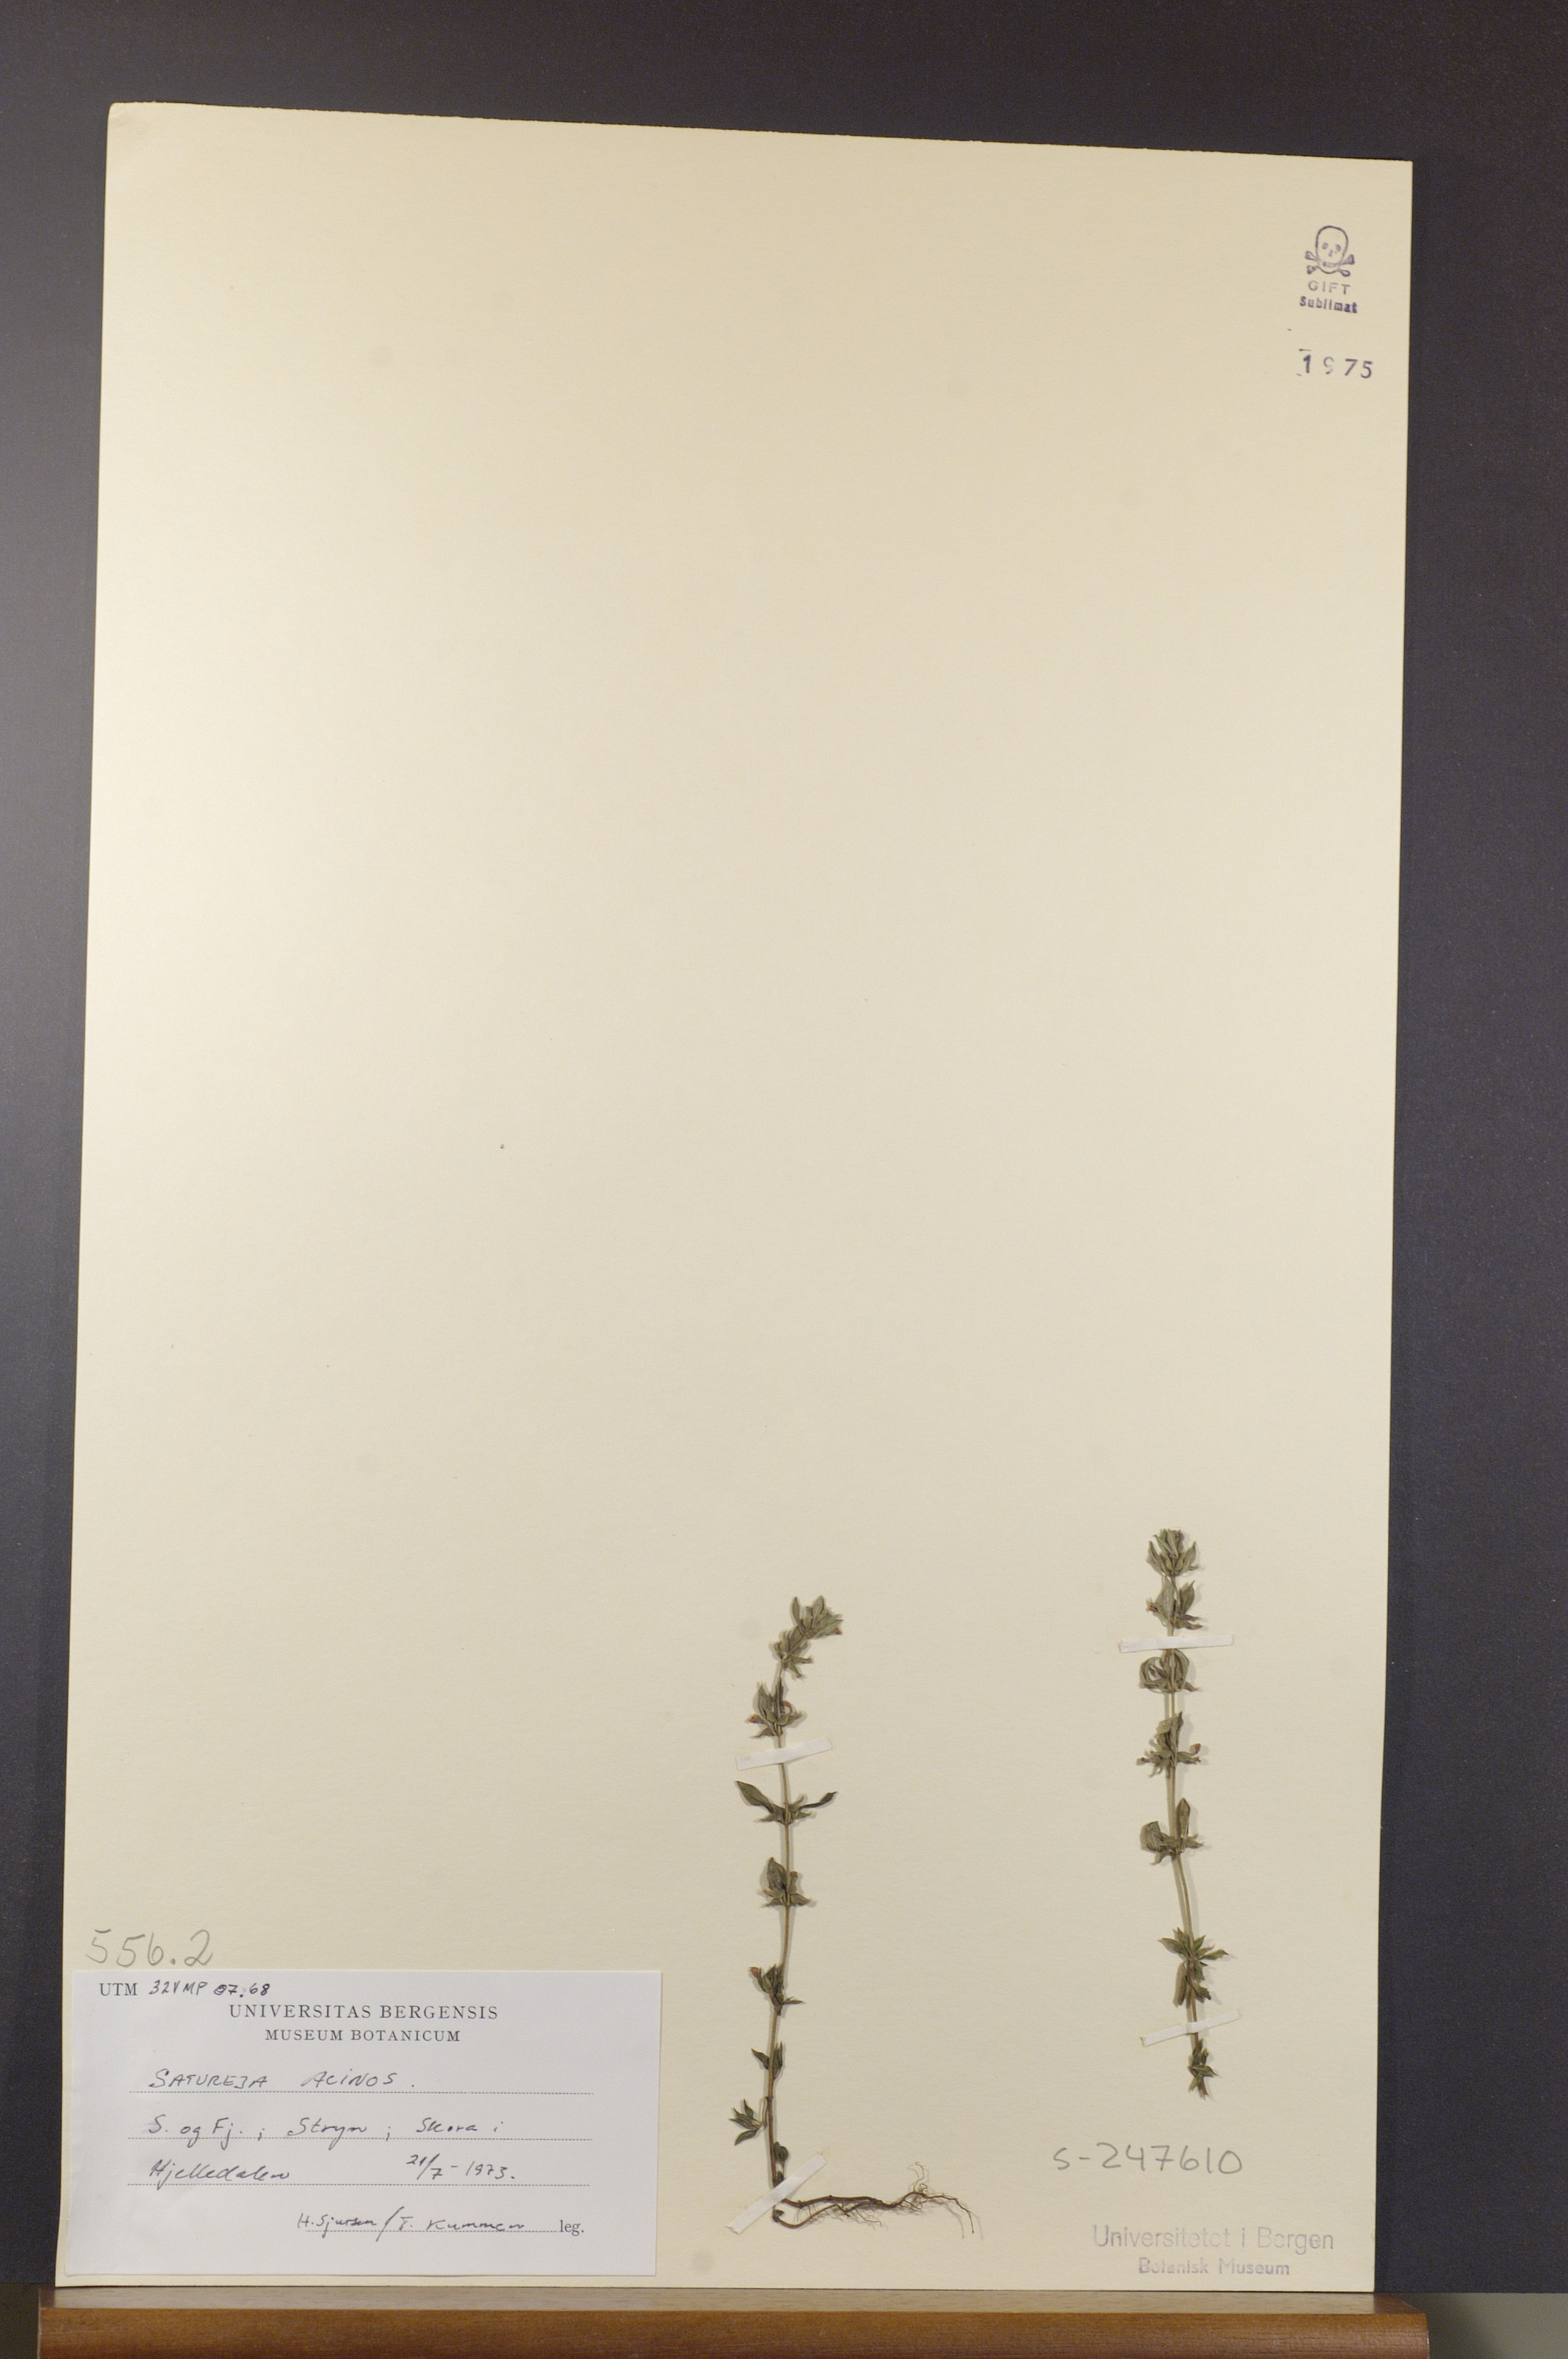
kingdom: Plantae
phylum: Tracheophyta
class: Magnoliopsida
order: Lamiales
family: Lamiaceae
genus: Clinopodium
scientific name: Clinopodium acinos
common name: Basil thyme
